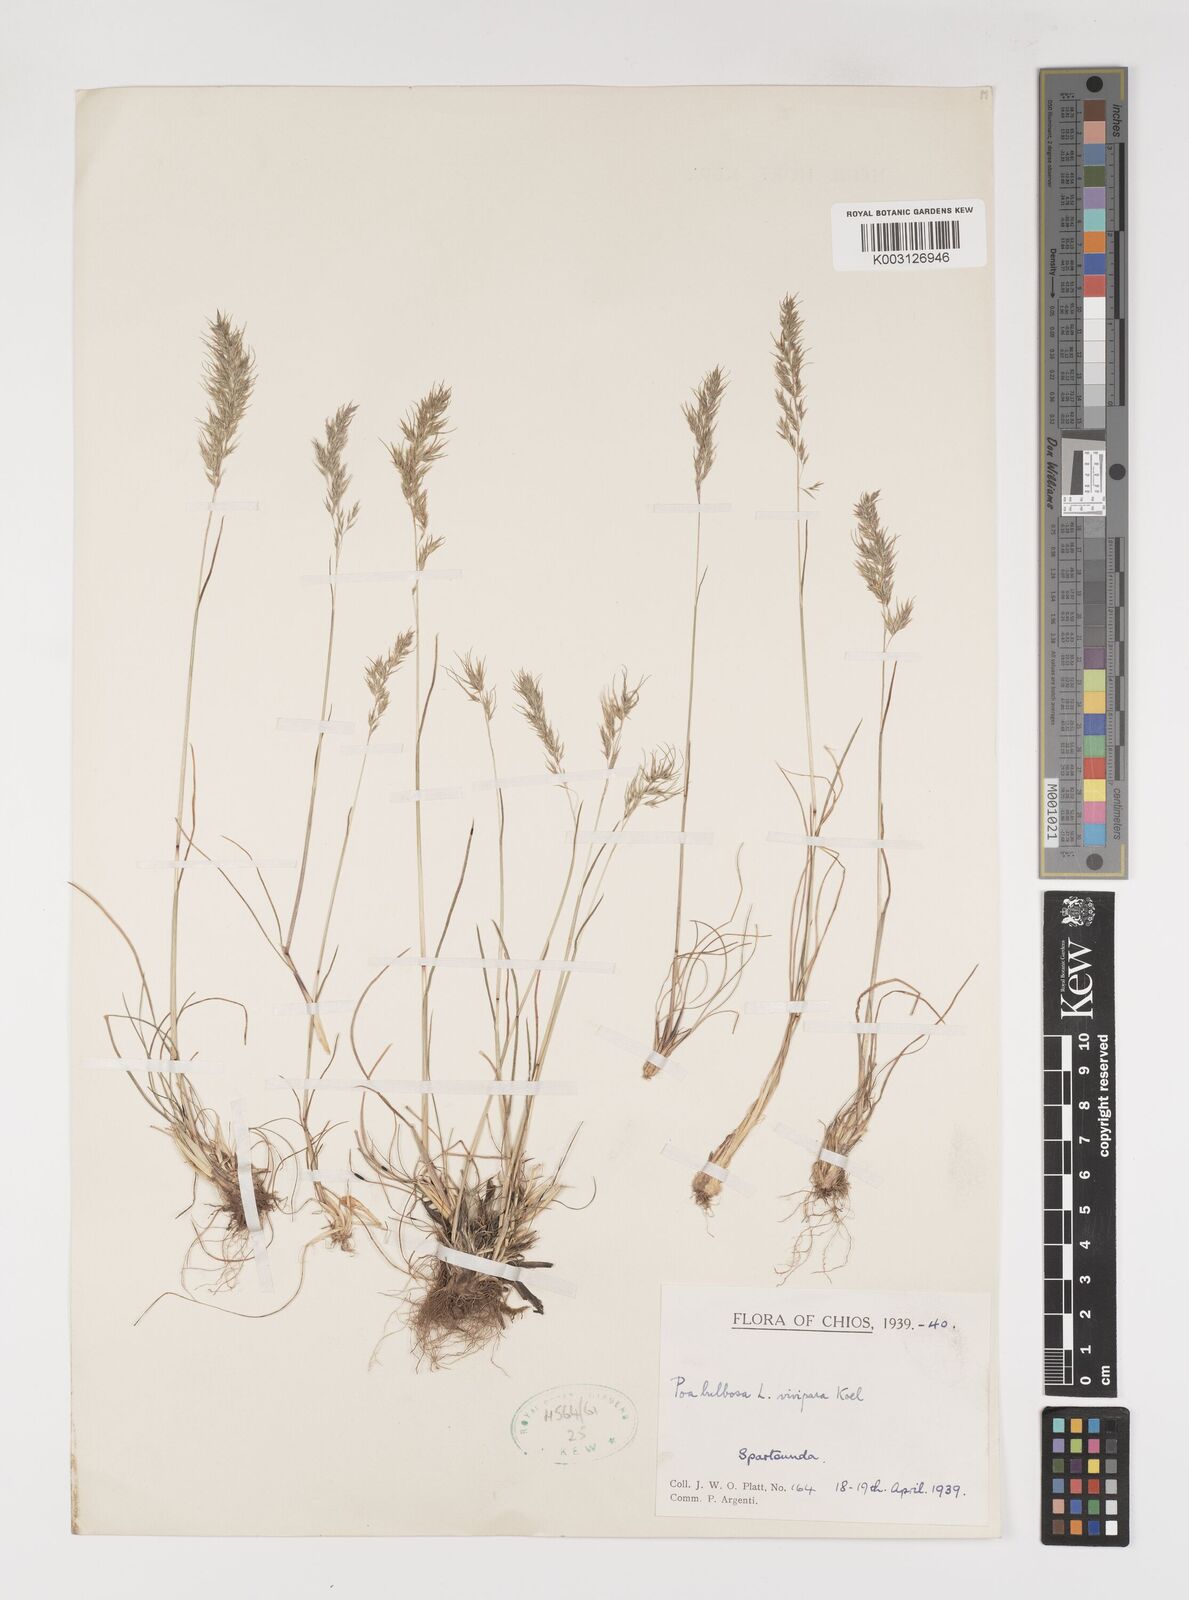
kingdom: Plantae
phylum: Tracheophyta
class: Liliopsida
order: Poales
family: Poaceae
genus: Poa
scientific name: Poa bulbosa
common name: Bulbous bluegrass
